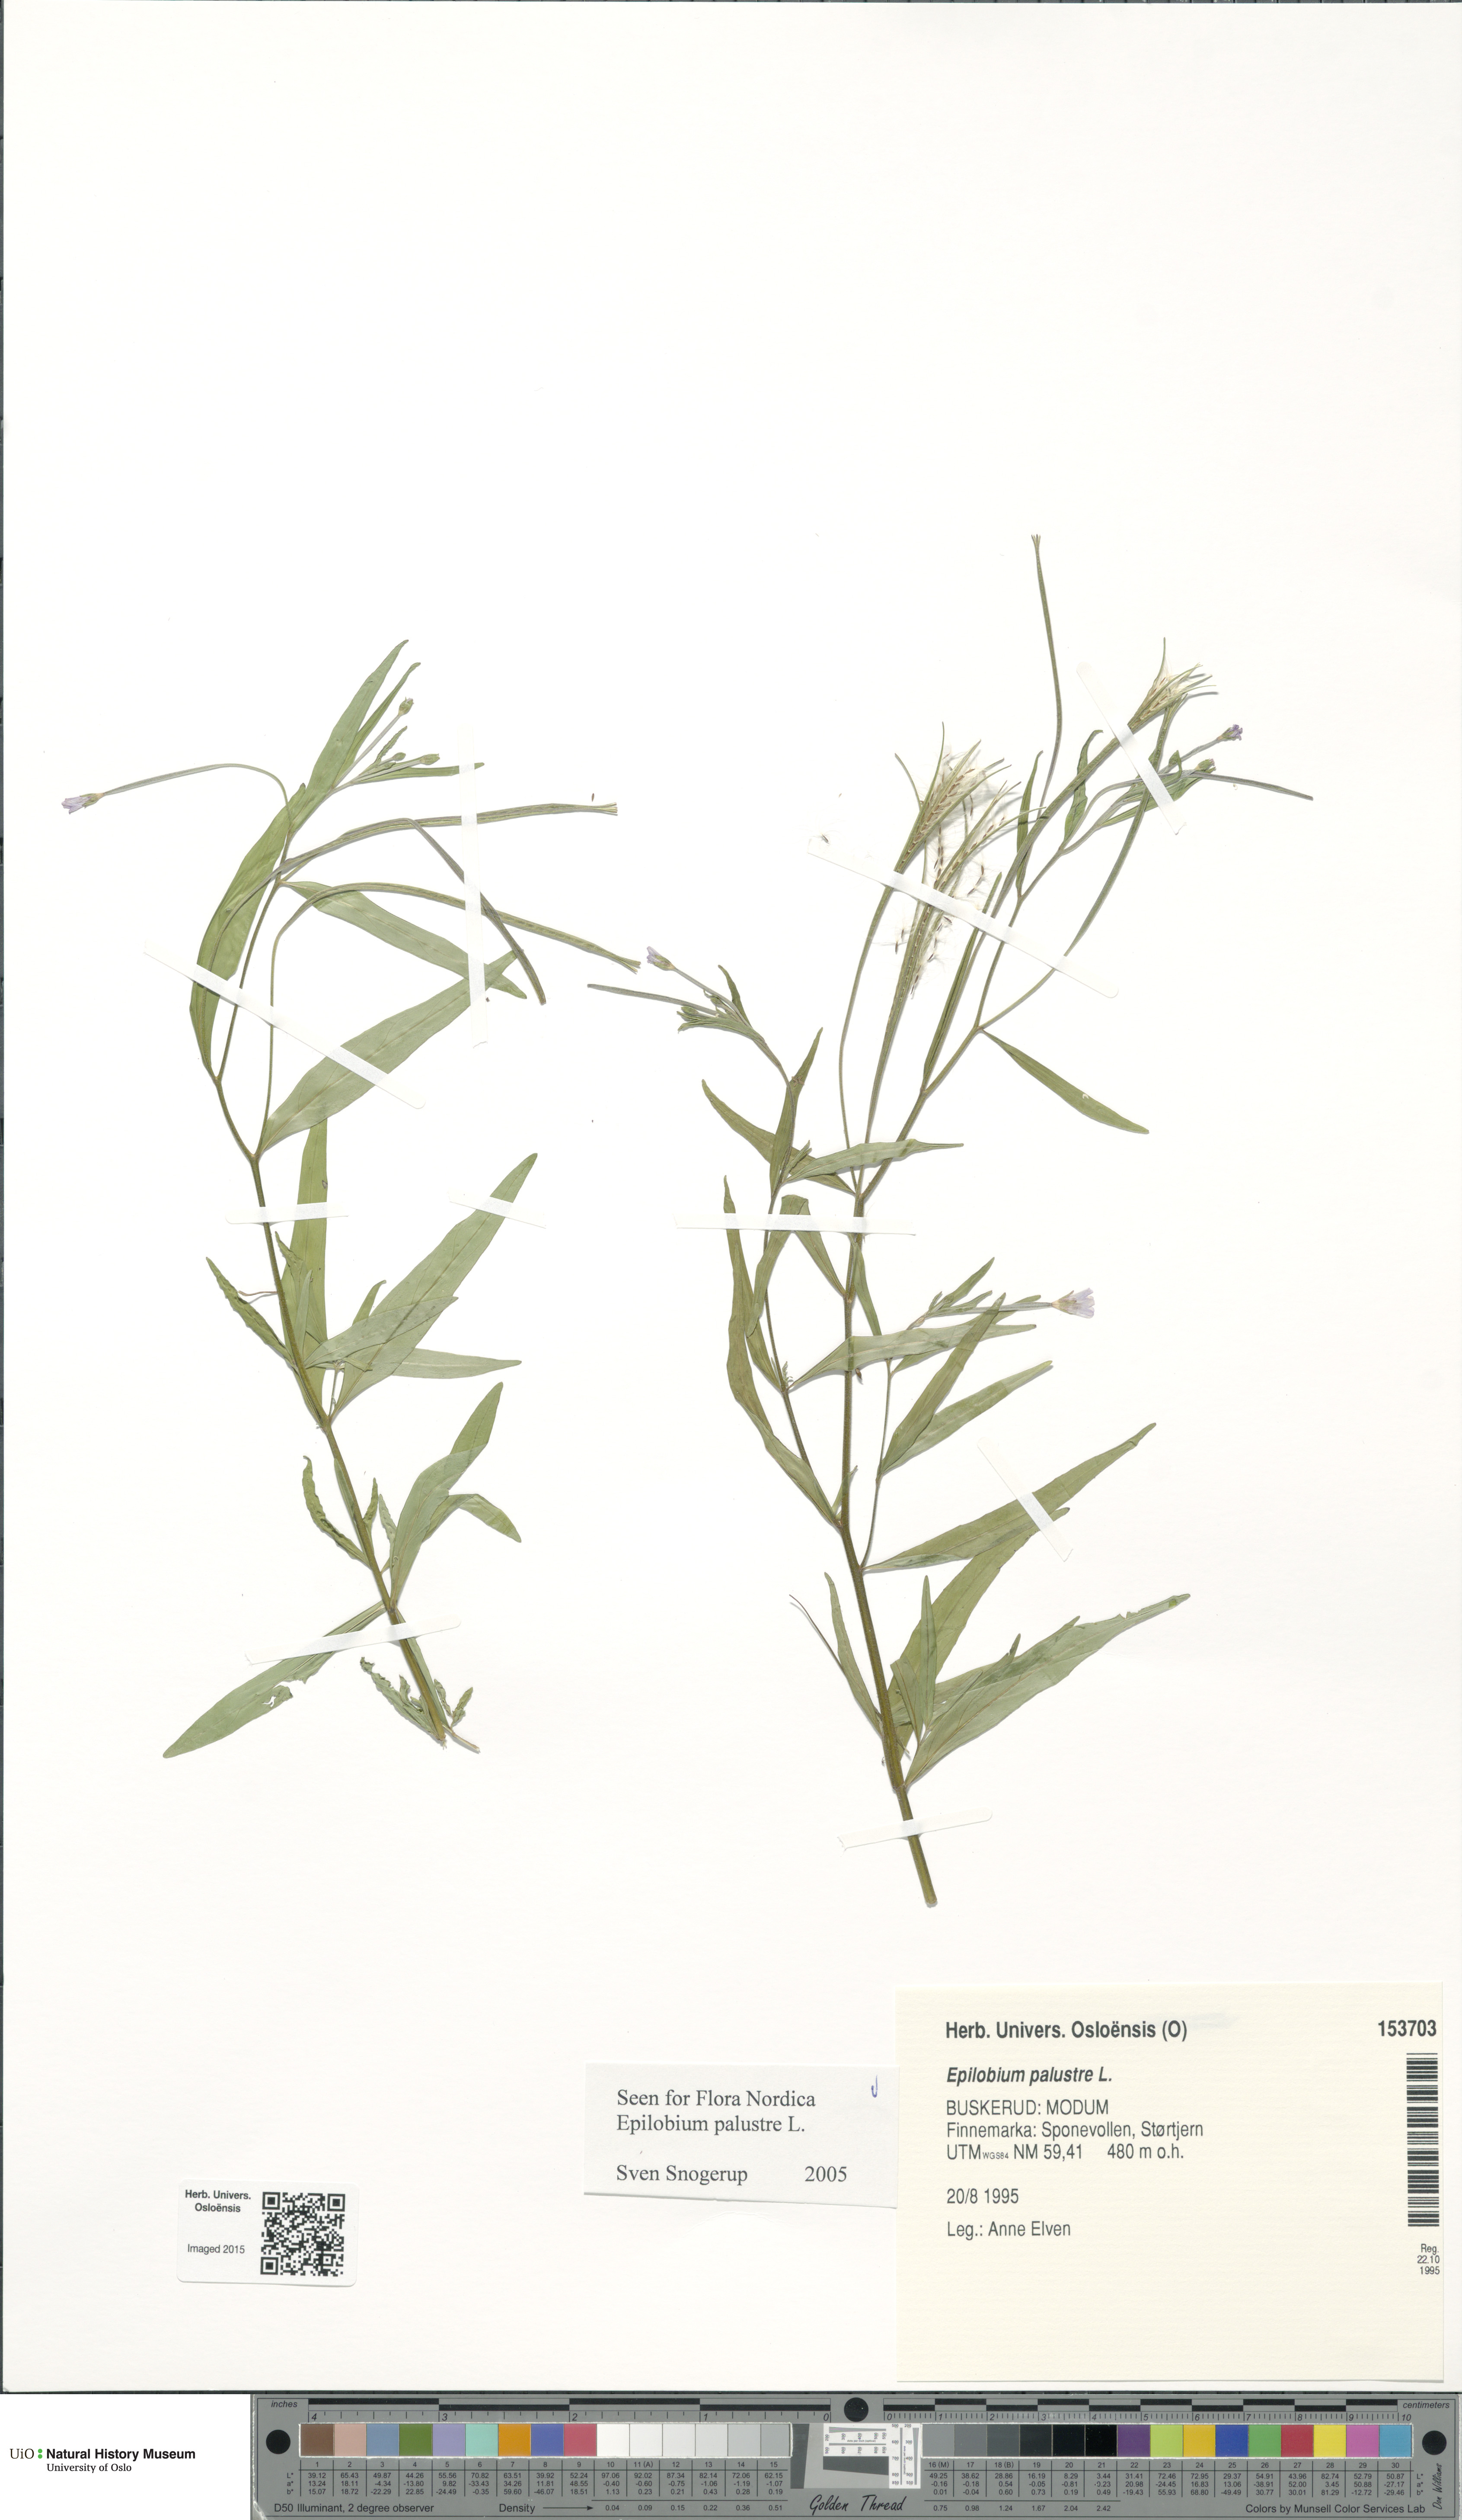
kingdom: Plantae
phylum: Tracheophyta
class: Magnoliopsida
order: Myrtales
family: Onagraceae
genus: Epilobium
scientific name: Epilobium palustre
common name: Marsh willowherb
